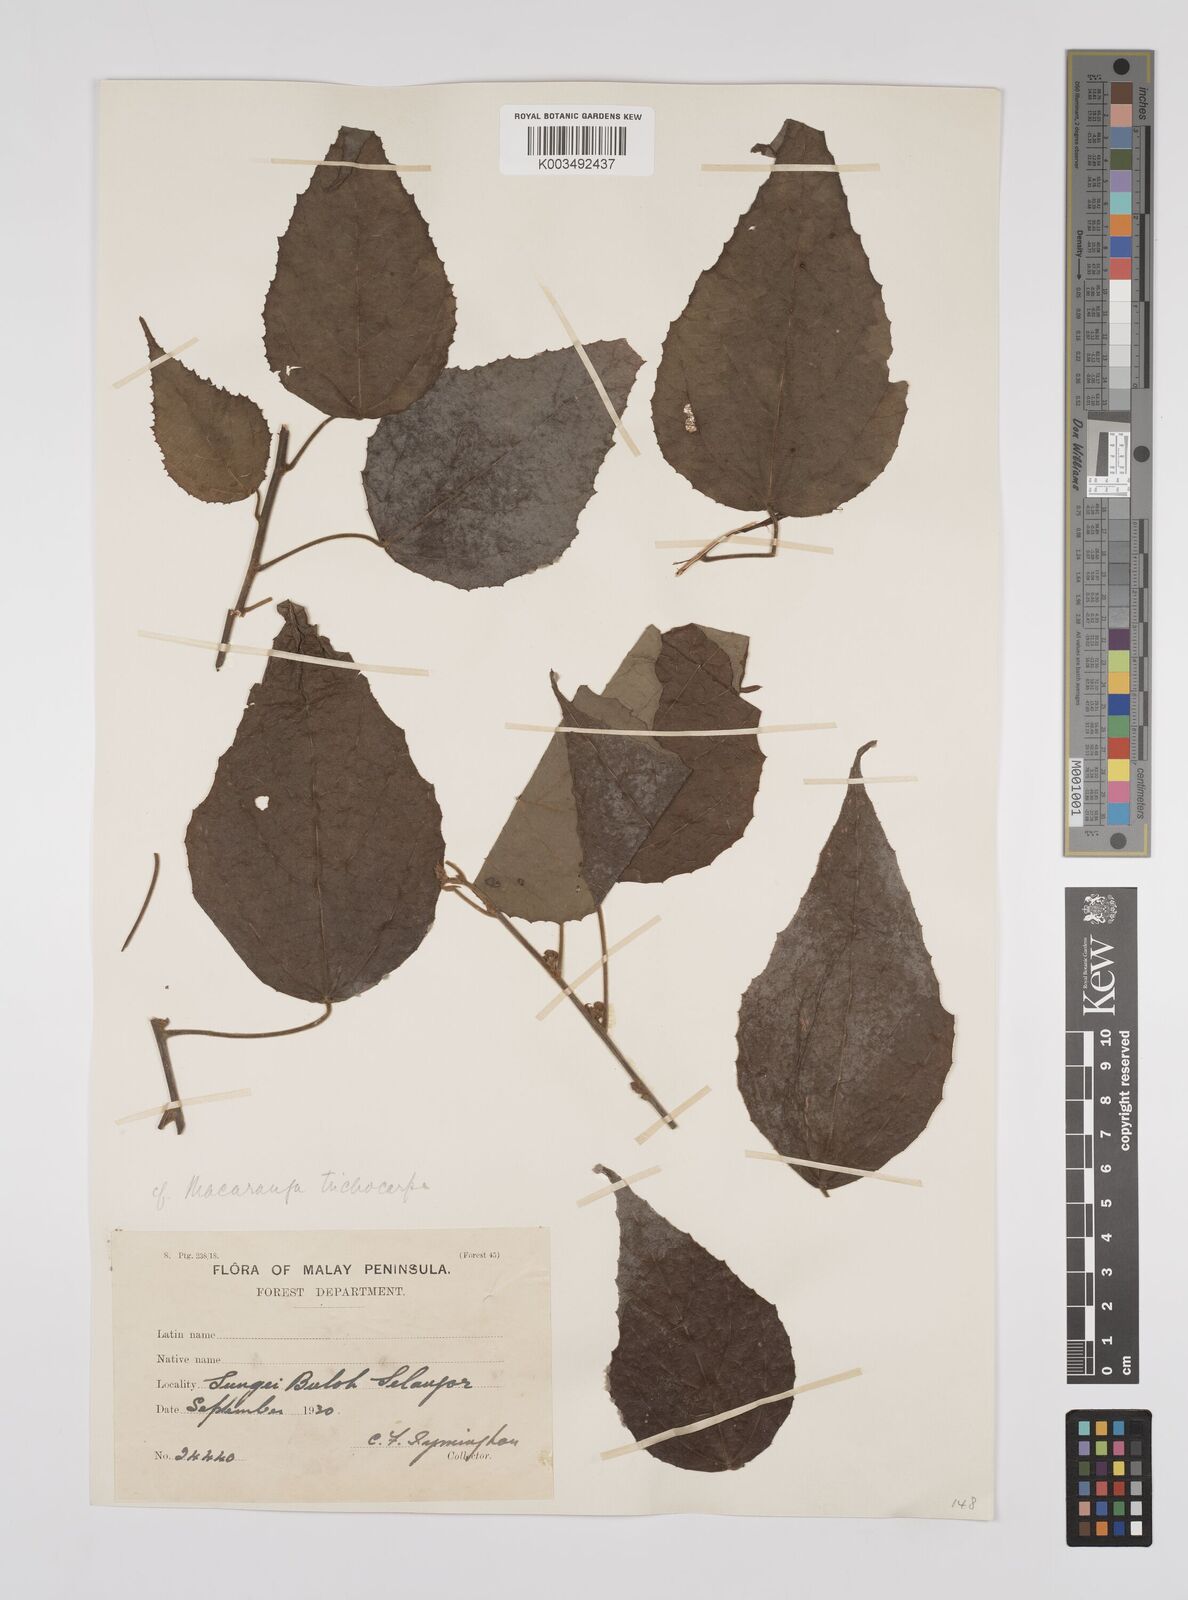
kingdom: Plantae
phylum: Tracheophyta
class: Magnoliopsida
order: Malpighiales
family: Euphorbiaceae
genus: Macaranga
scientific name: Macaranga trichocarpa
